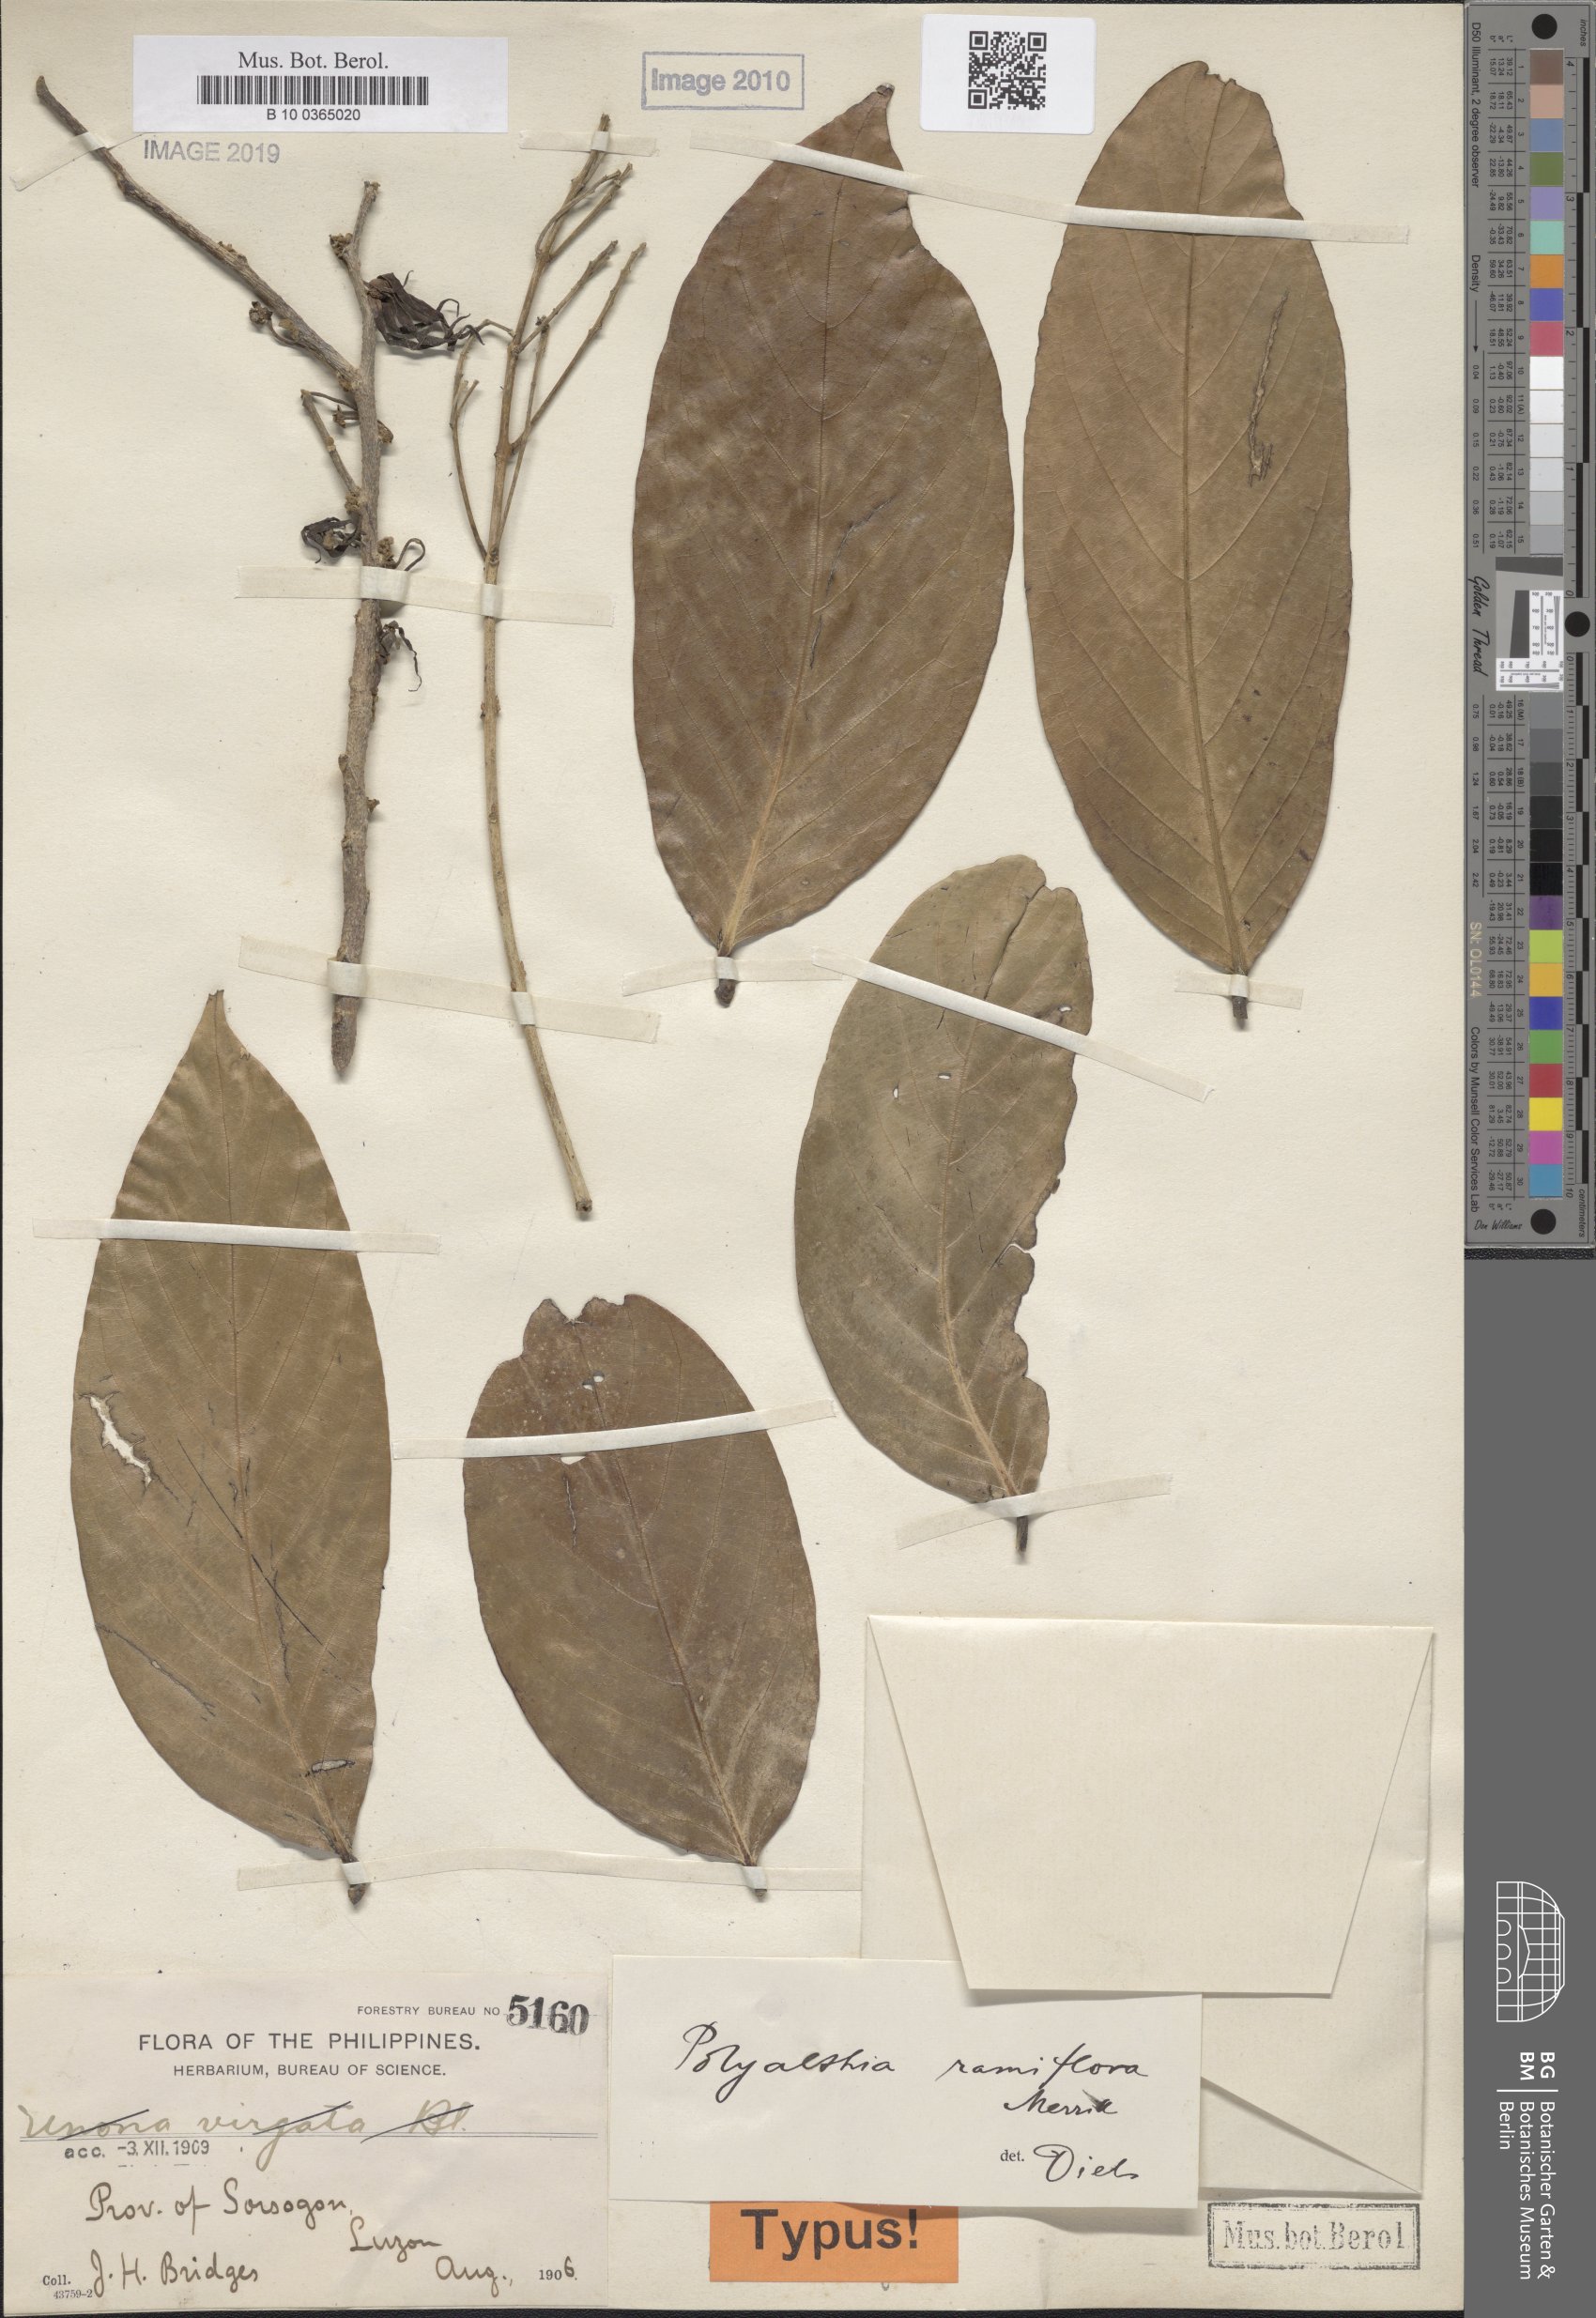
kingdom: Plantae
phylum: Tracheophyta
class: Magnoliopsida
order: Magnoliales
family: Annonaceae
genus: Polyalthia
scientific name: Polyalthia ramiflora
